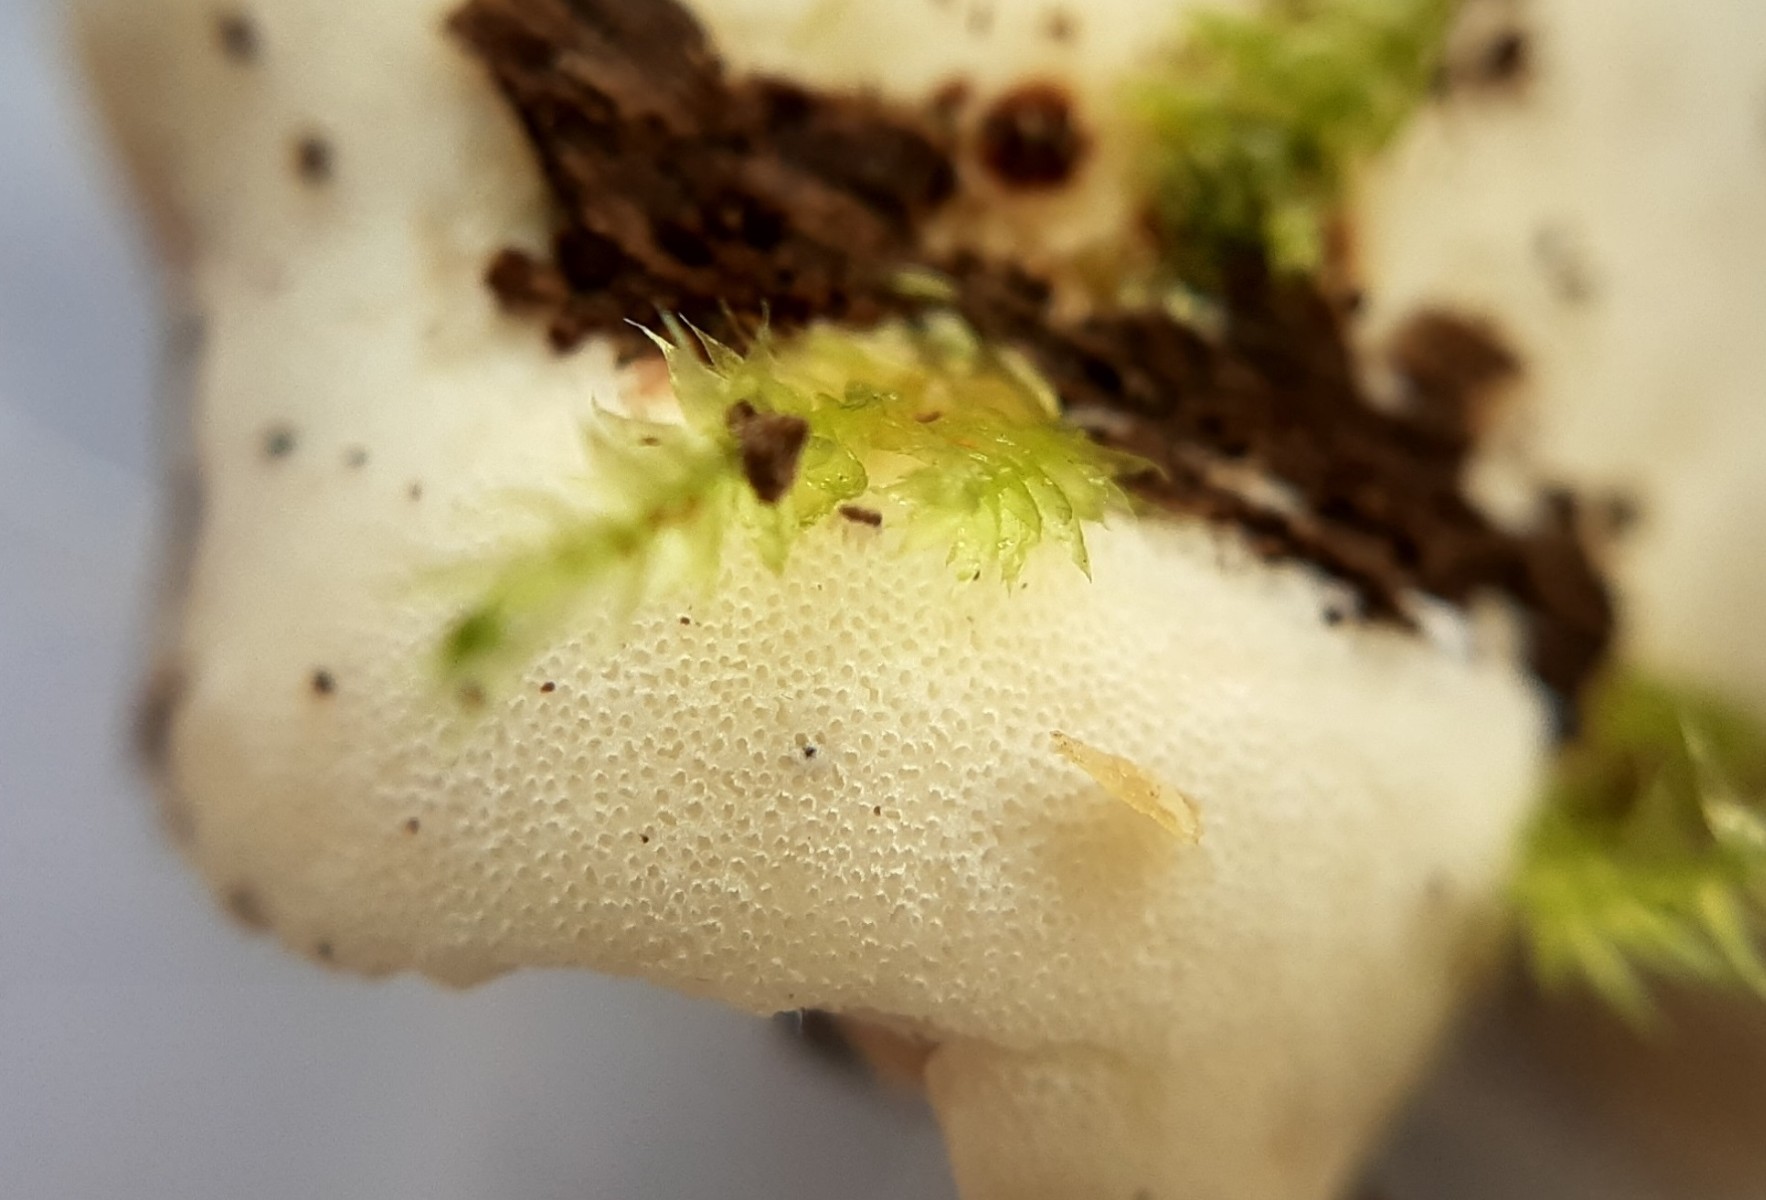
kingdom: Fungi
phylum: Basidiomycota
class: Agaricomycetes
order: Polyporales
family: Polyporaceae
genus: Picipes
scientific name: Picipes badius
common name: kastaniebrun stilkporesvamp
